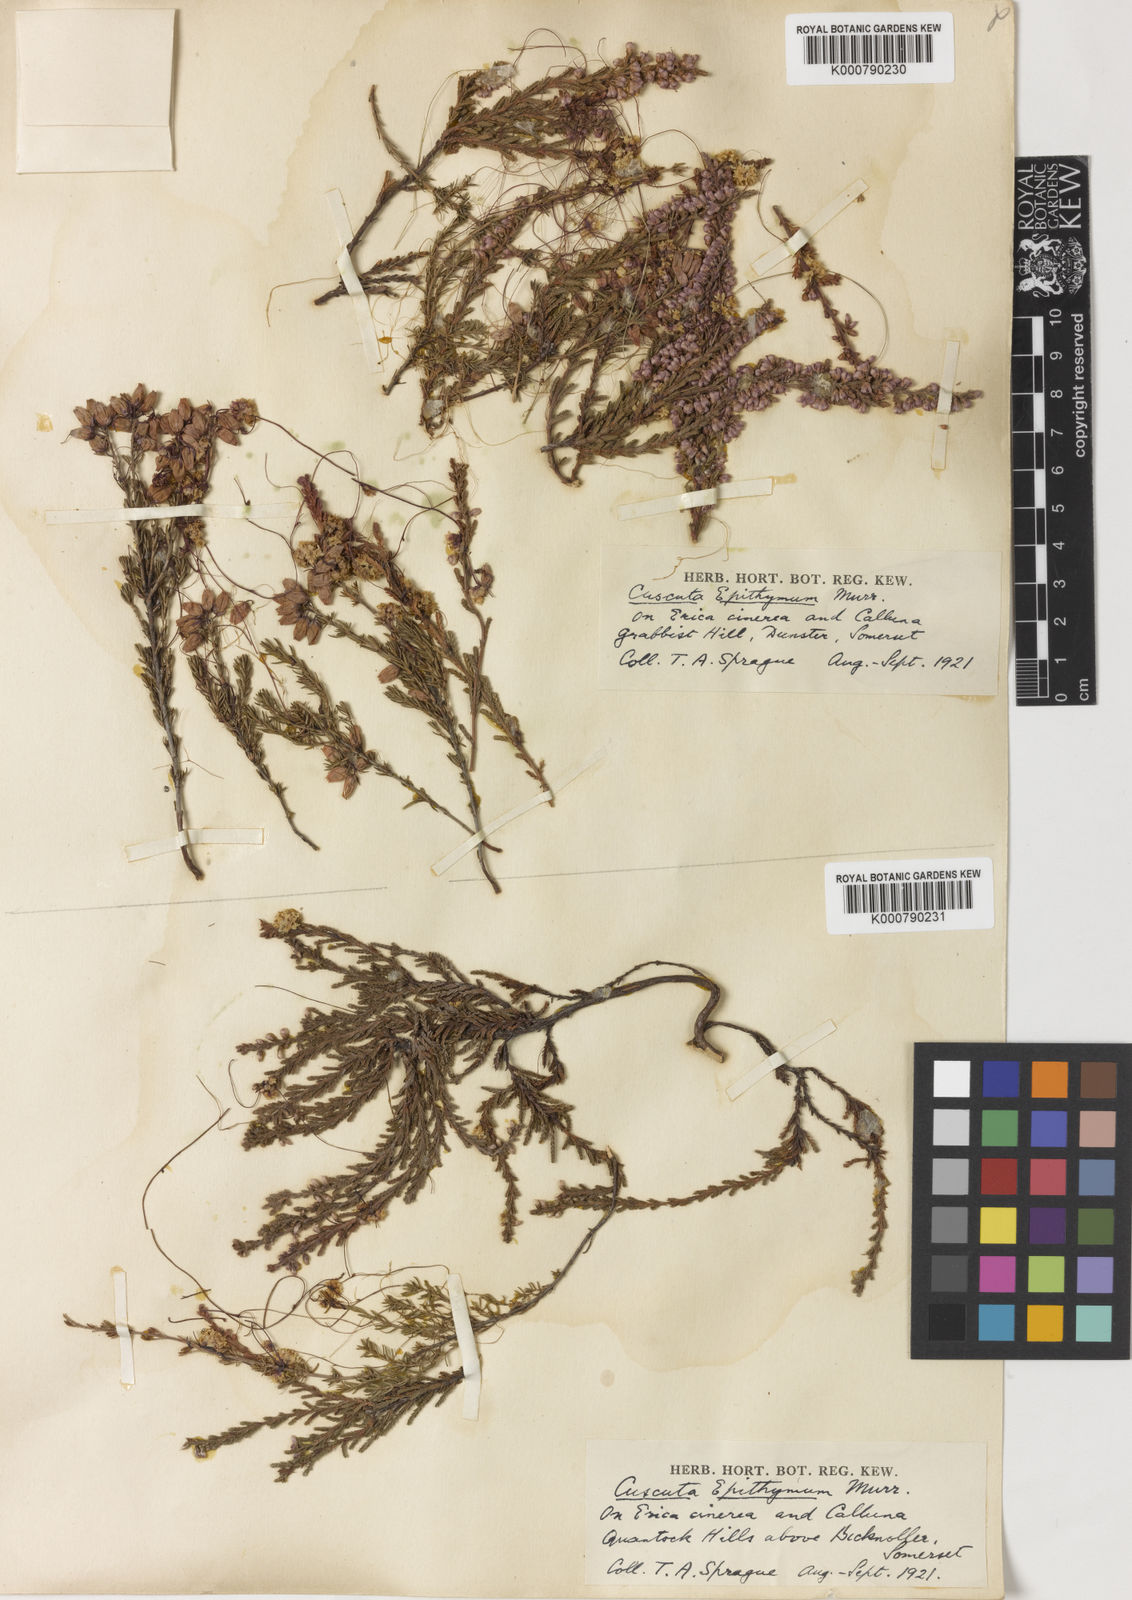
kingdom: Plantae
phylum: Tracheophyta
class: Magnoliopsida
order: Solanales
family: Convolvulaceae
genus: Cuscuta
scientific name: Cuscuta epithymum
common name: Clover dodder
